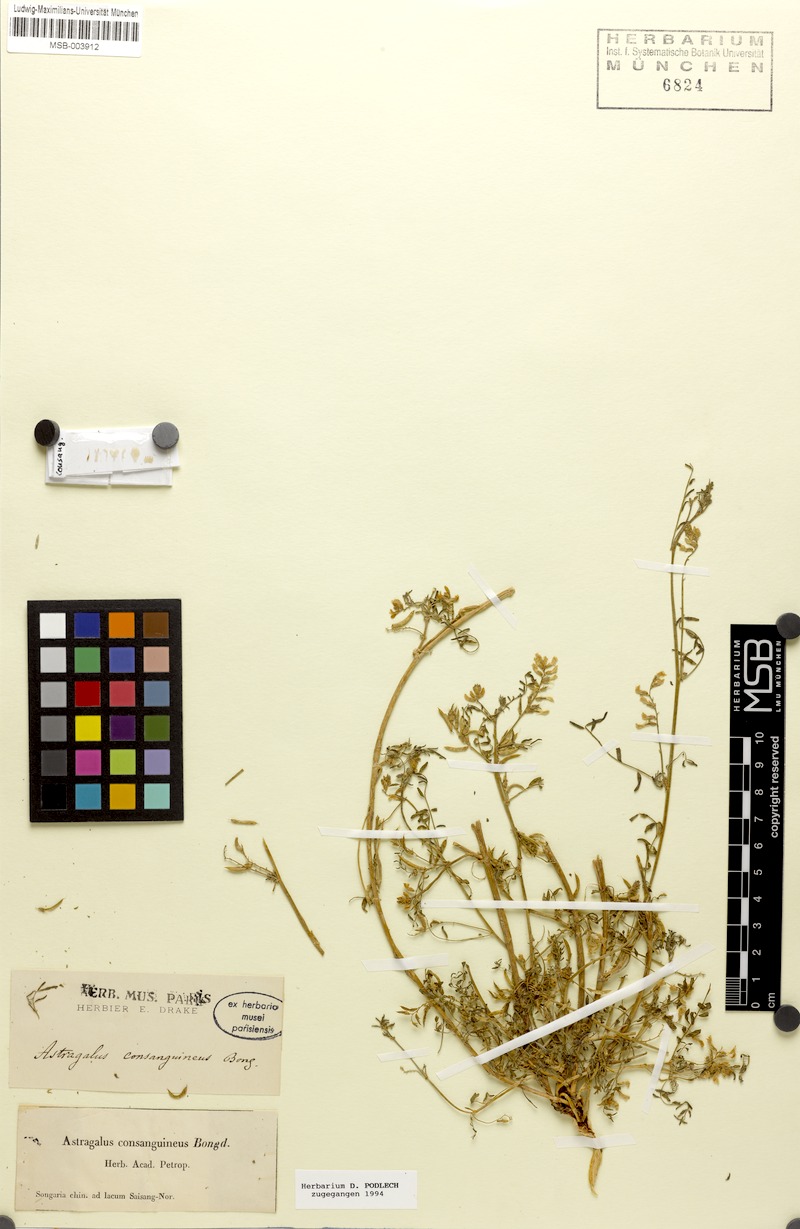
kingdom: Plantae
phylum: Tracheophyta
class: Magnoliopsida
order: Fabales
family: Fabaceae
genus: Astragalus
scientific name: Astragalus consanguineus
